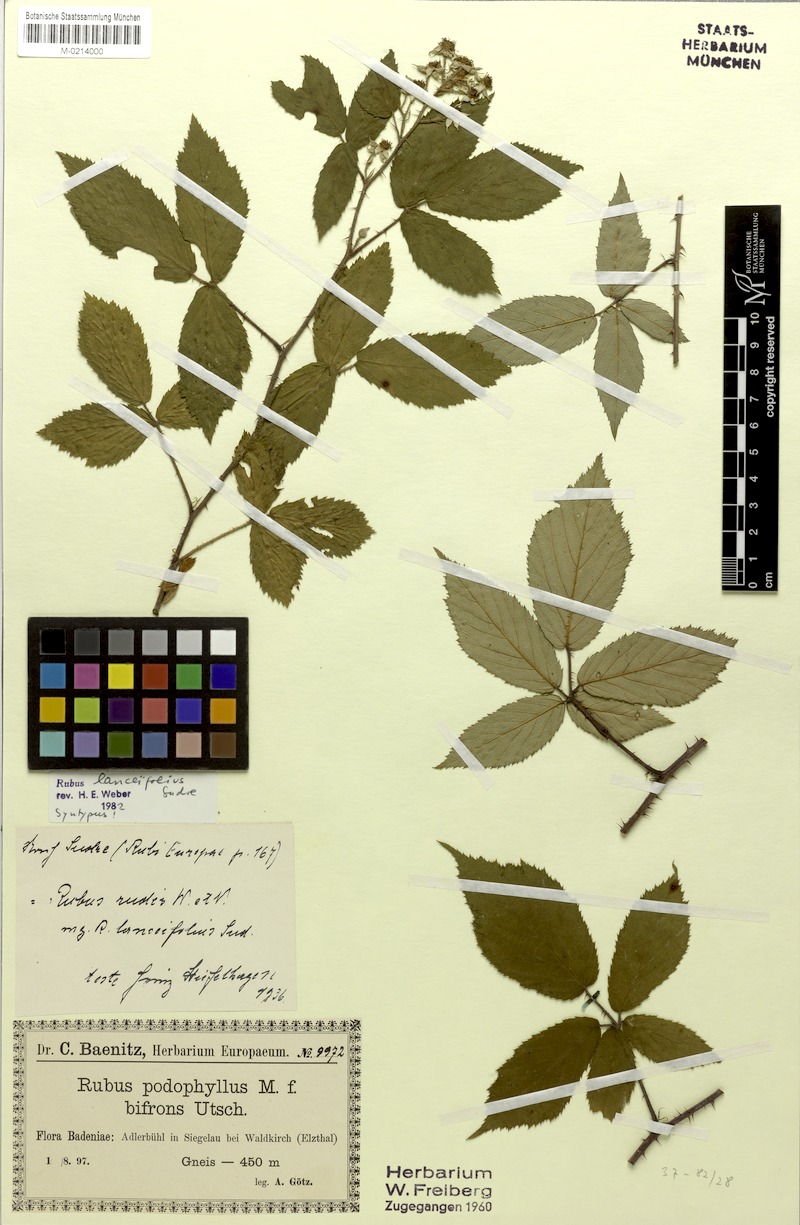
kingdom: Plantae
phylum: Tracheophyta
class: Magnoliopsida
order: Rosales
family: Rosaceae
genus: Rubus
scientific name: Rubus rudis
